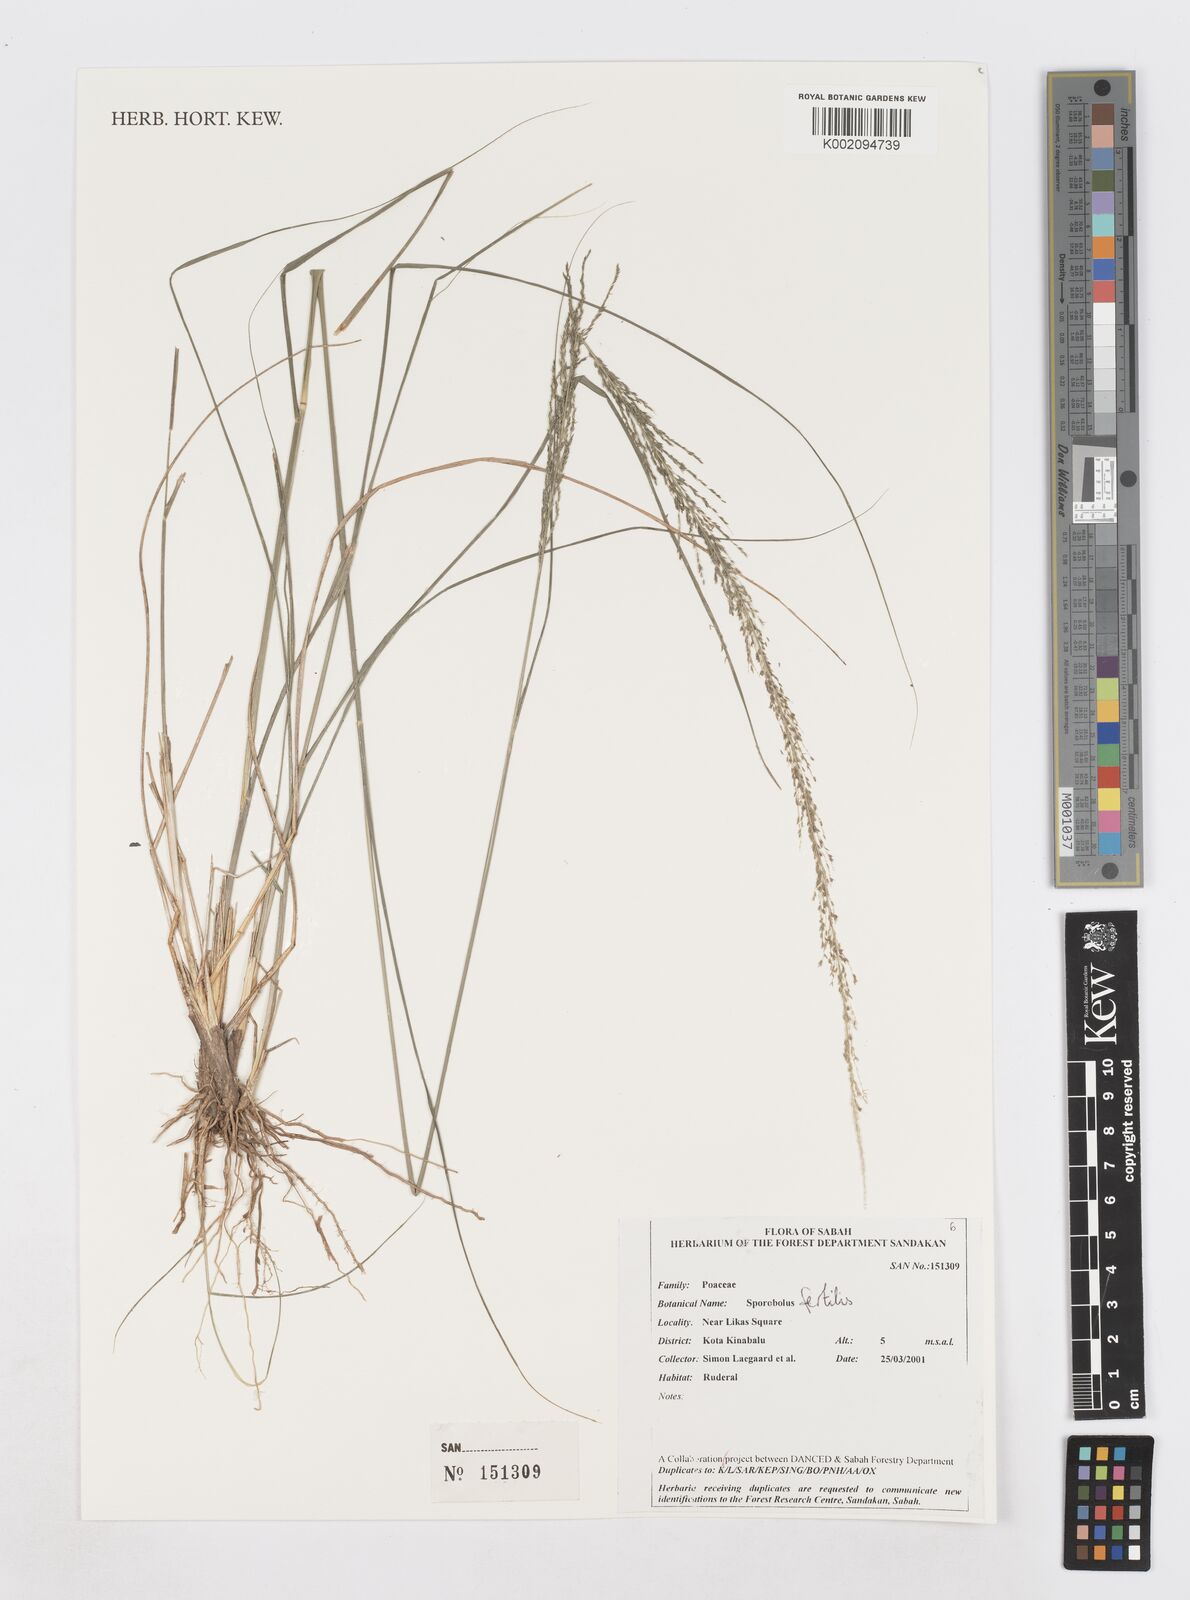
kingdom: Plantae
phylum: Tracheophyta
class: Liliopsida
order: Poales
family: Poaceae
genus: Sporobolus
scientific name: Sporobolus fertilis
